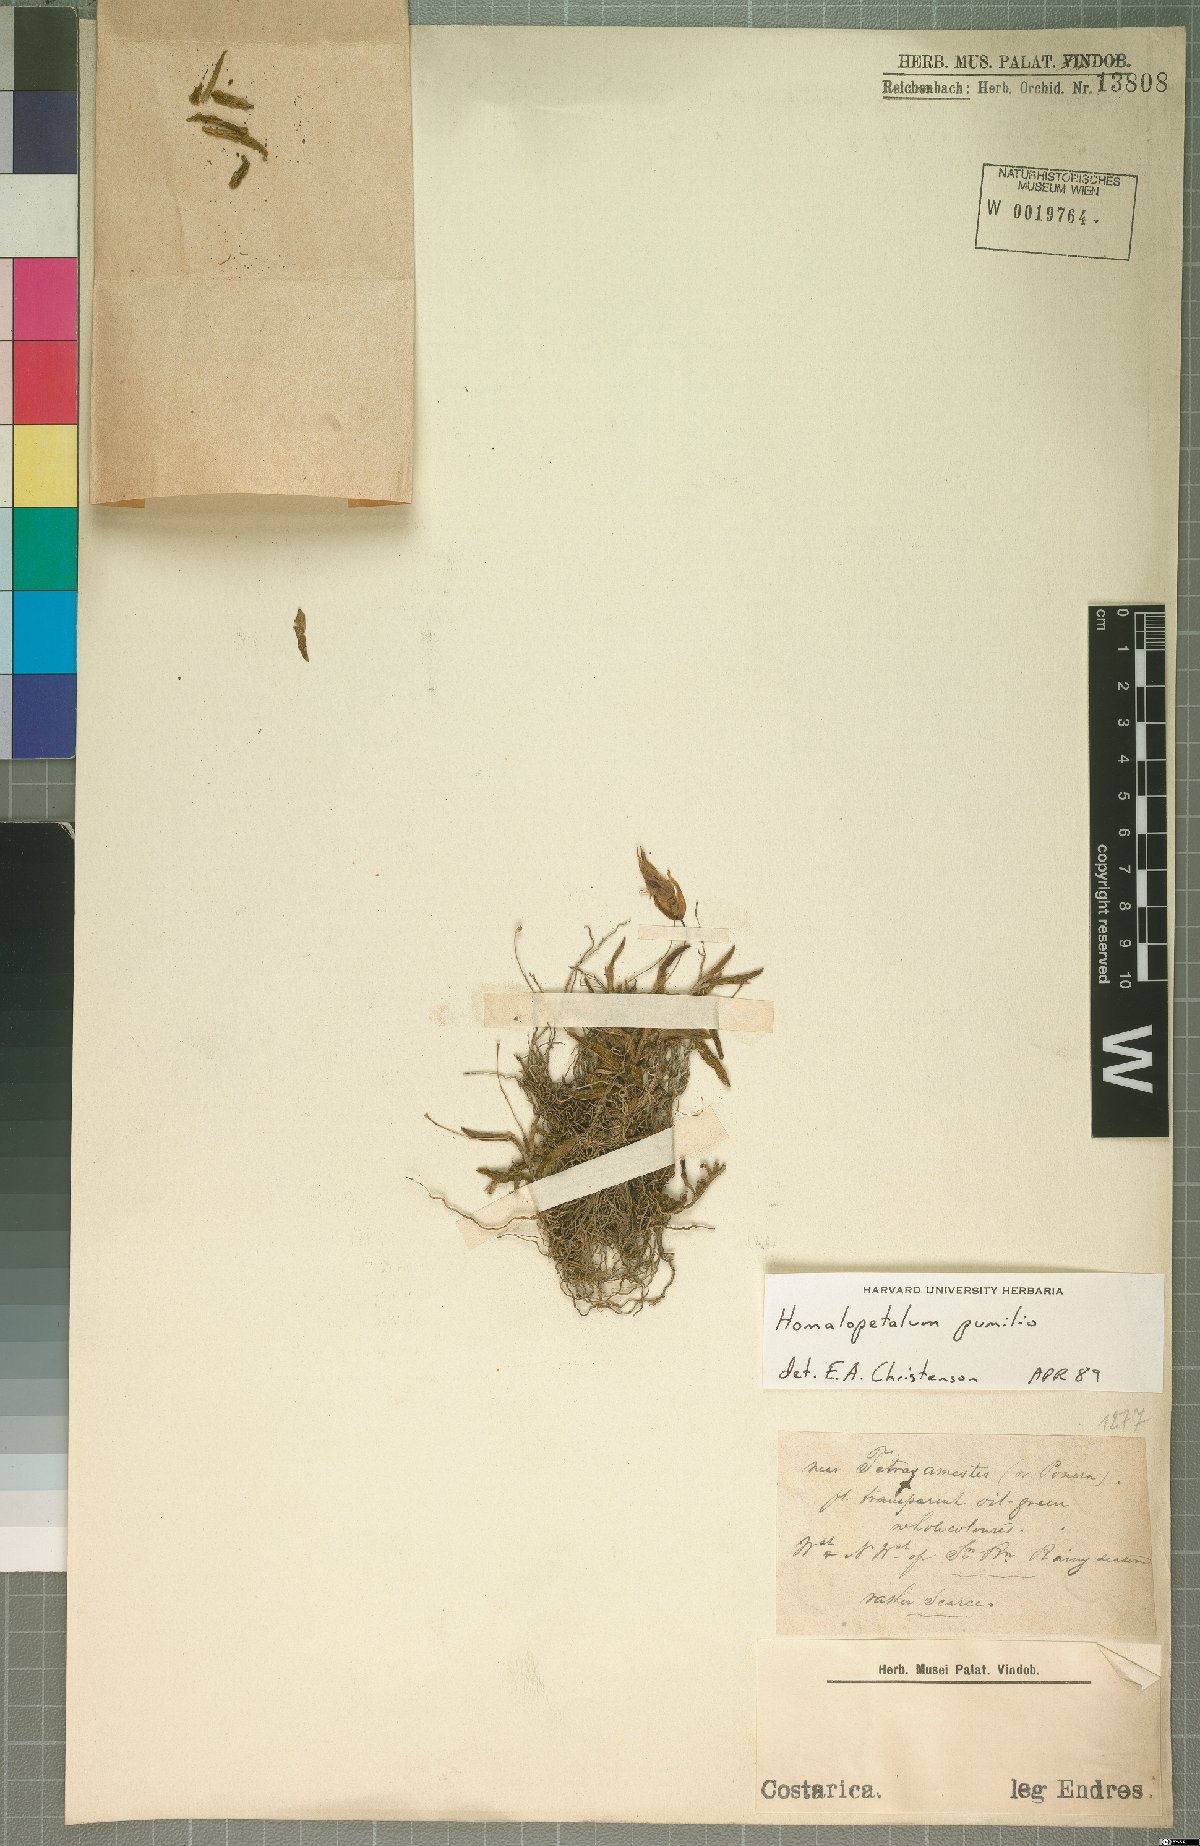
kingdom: Plantae
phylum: Tracheophyta
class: Liliopsida
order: Asparagales
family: Orchidaceae
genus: Homalopetalum
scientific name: Homalopetalum pumilio
